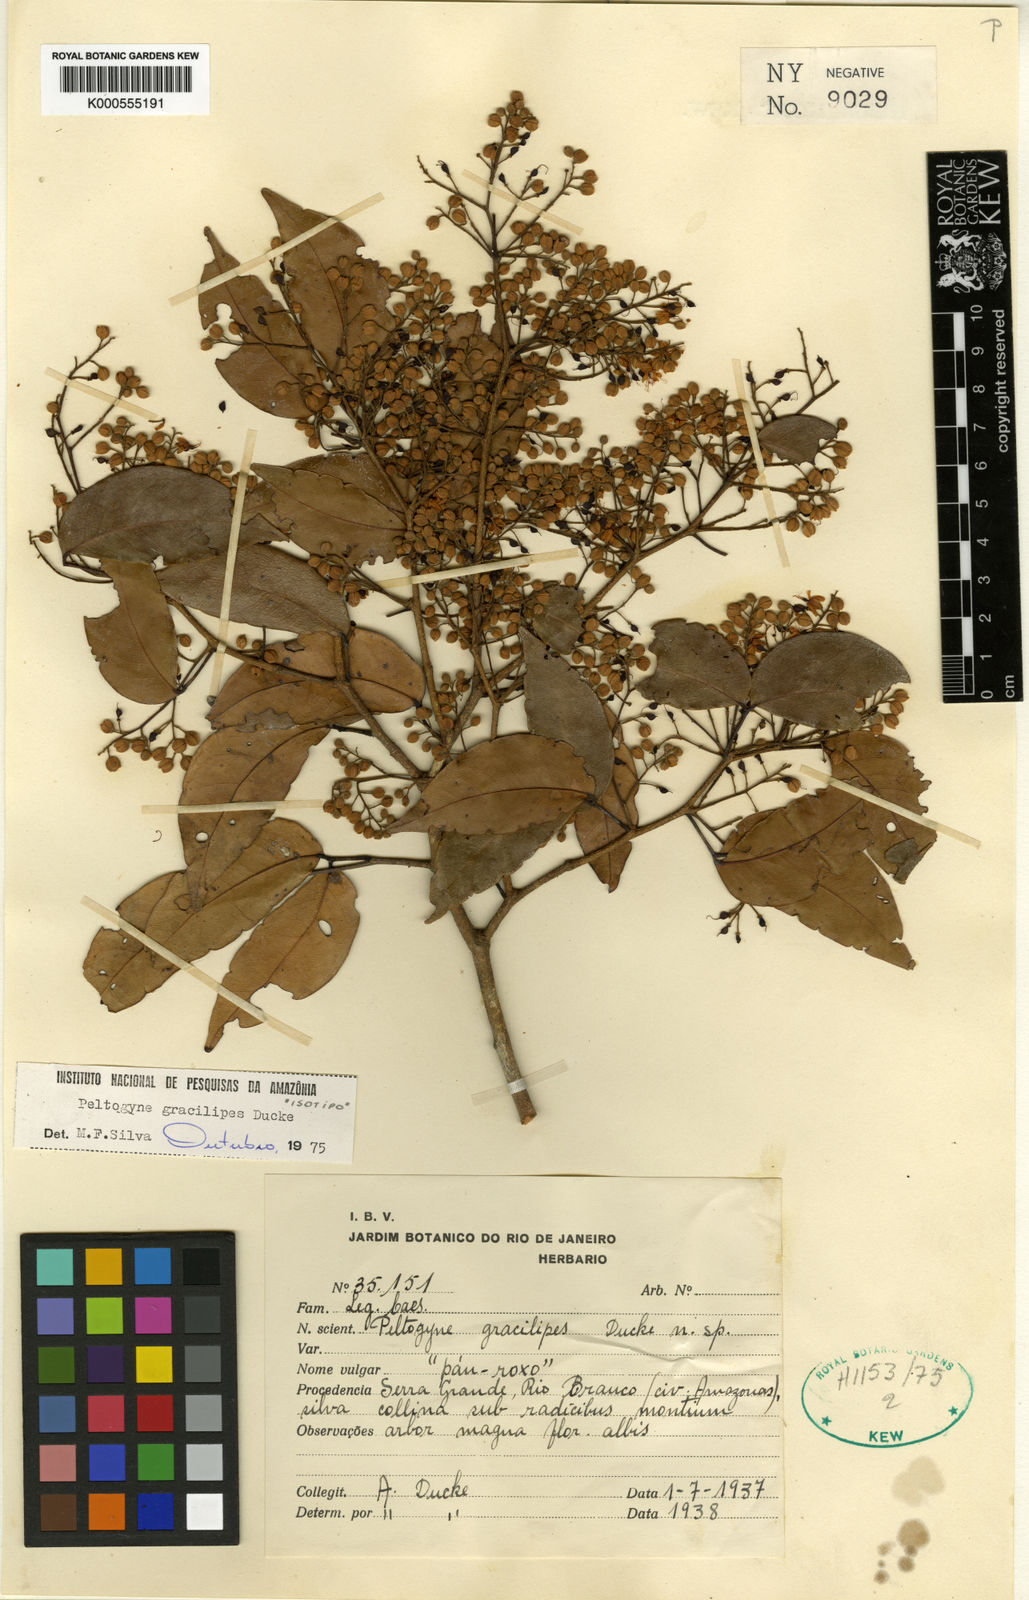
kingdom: Plantae
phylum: Tracheophyta
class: Magnoliopsida
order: Fabales
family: Fabaceae
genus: Peltogyne
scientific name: Peltogyne gracilipes
